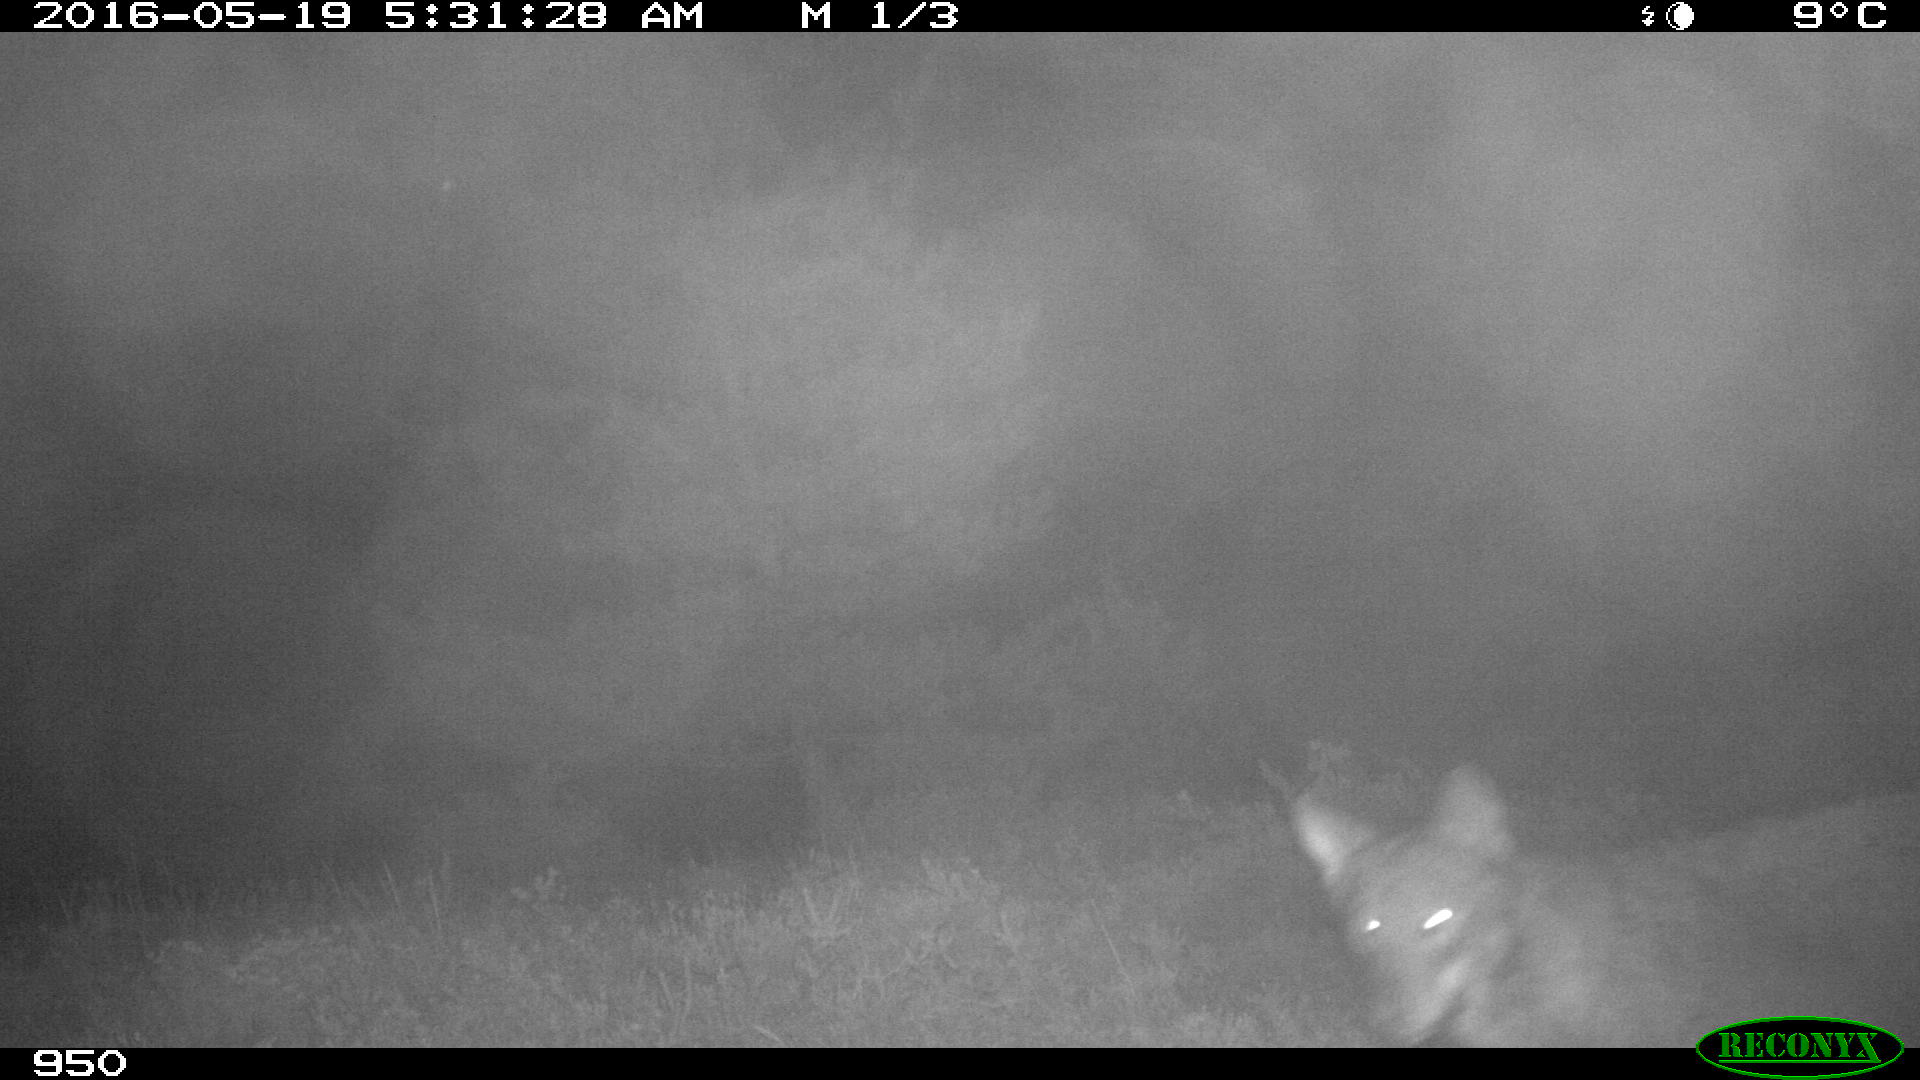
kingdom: Animalia
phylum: Chordata
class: Mammalia
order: Carnivora
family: Canidae
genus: Canis
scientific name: Canis lupus
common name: Gray wolf
